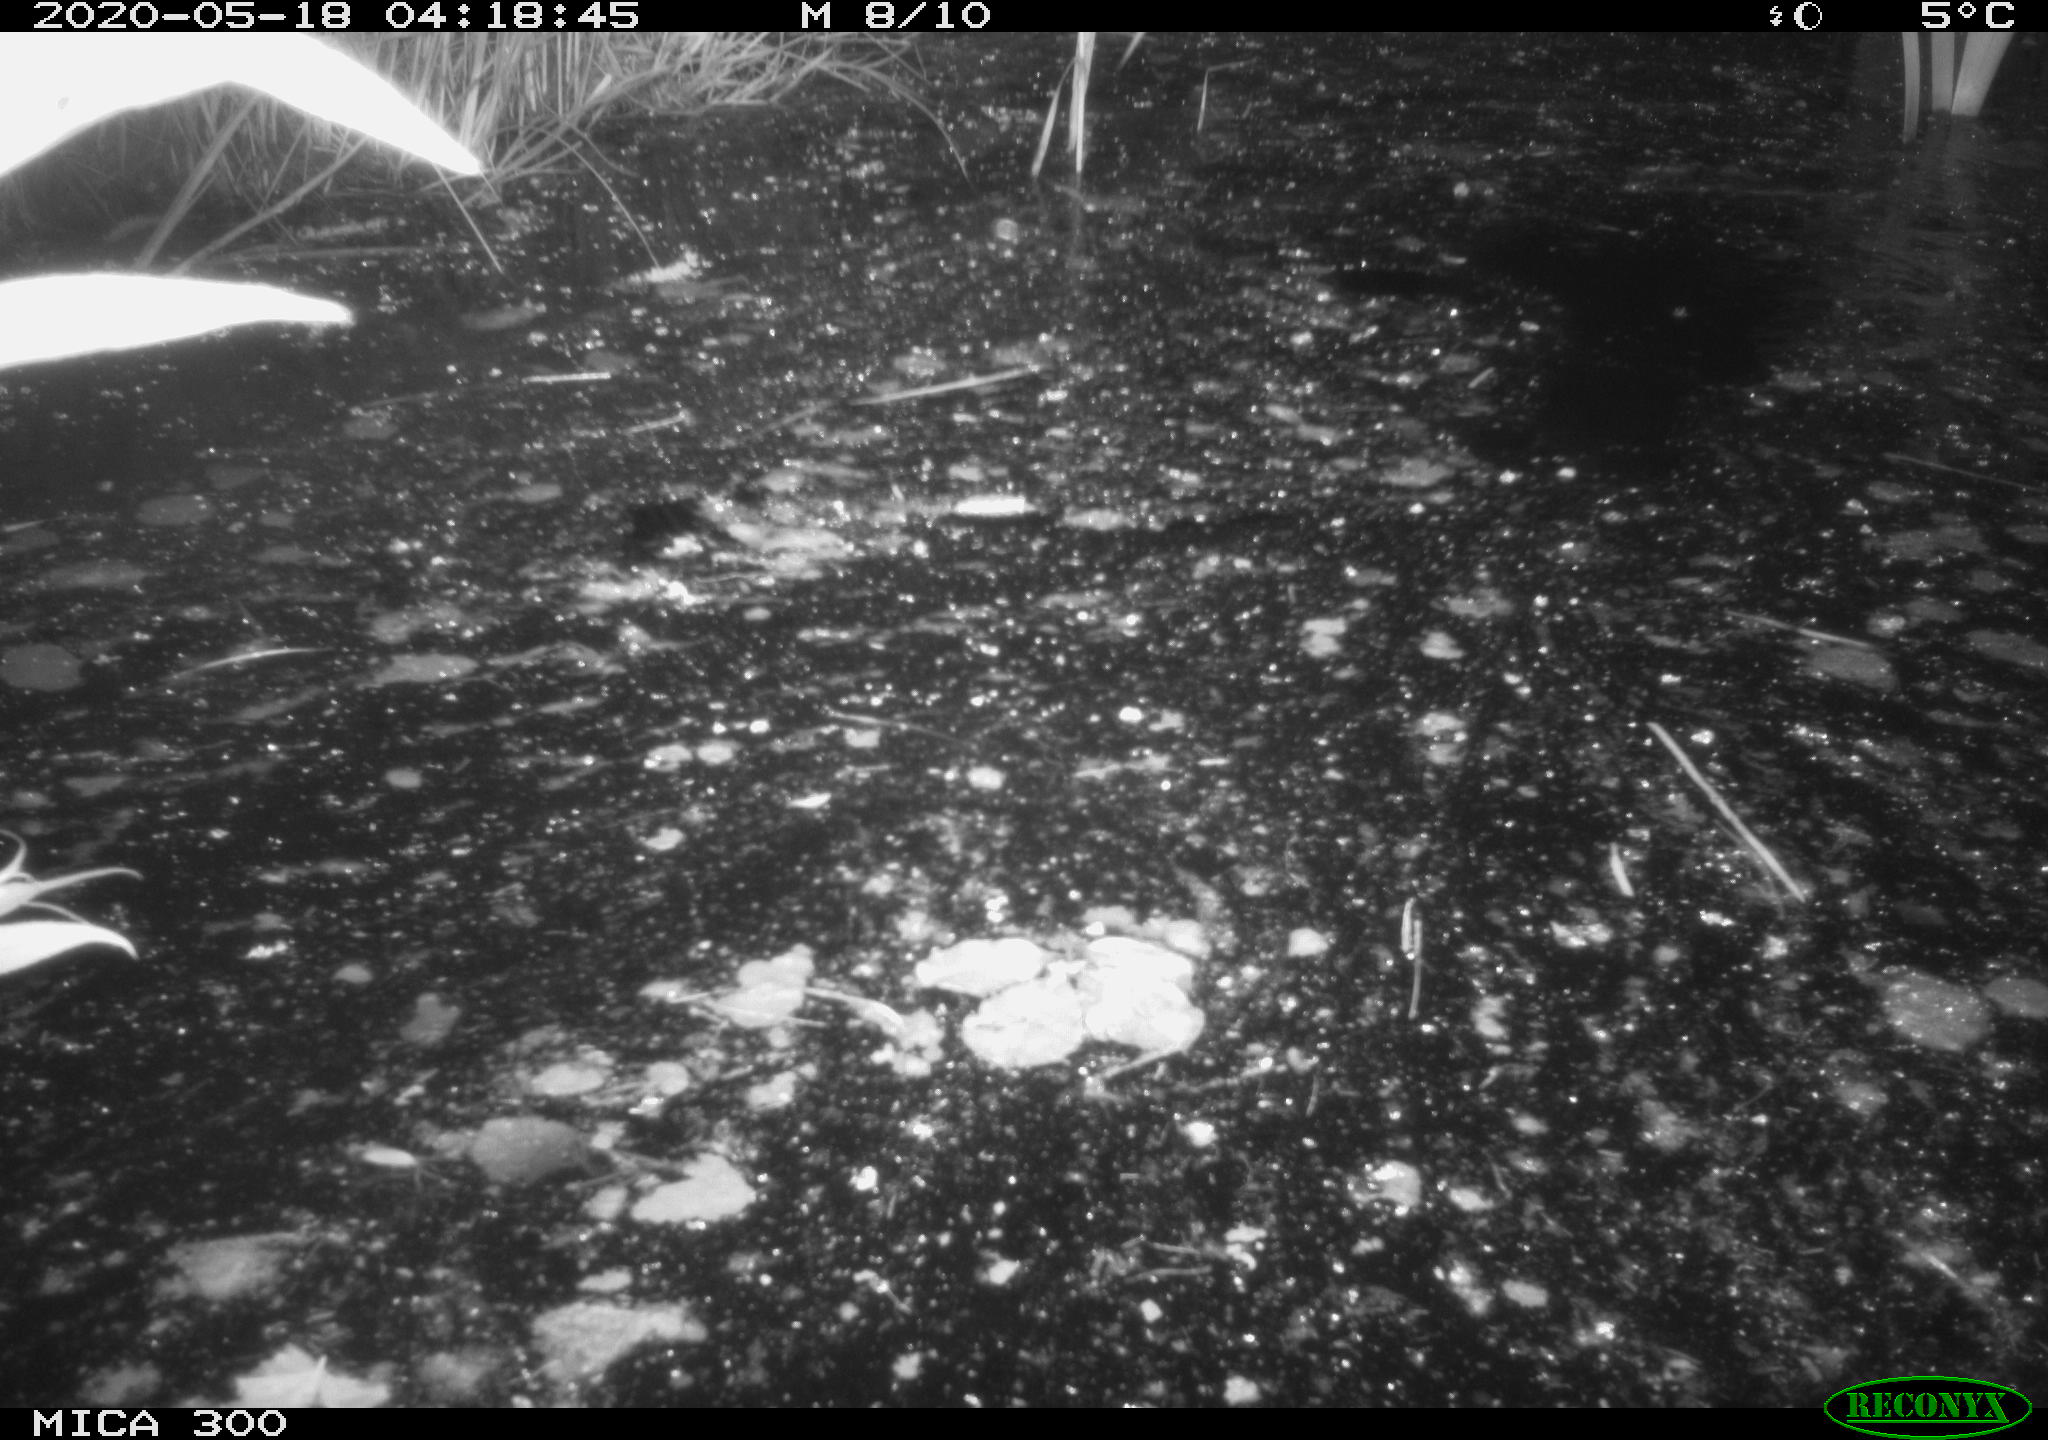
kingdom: Animalia
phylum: Chordata
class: Mammalia
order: Rodentia
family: Castoridae
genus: Castor
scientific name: Castor fiber
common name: Eurasian beaver
